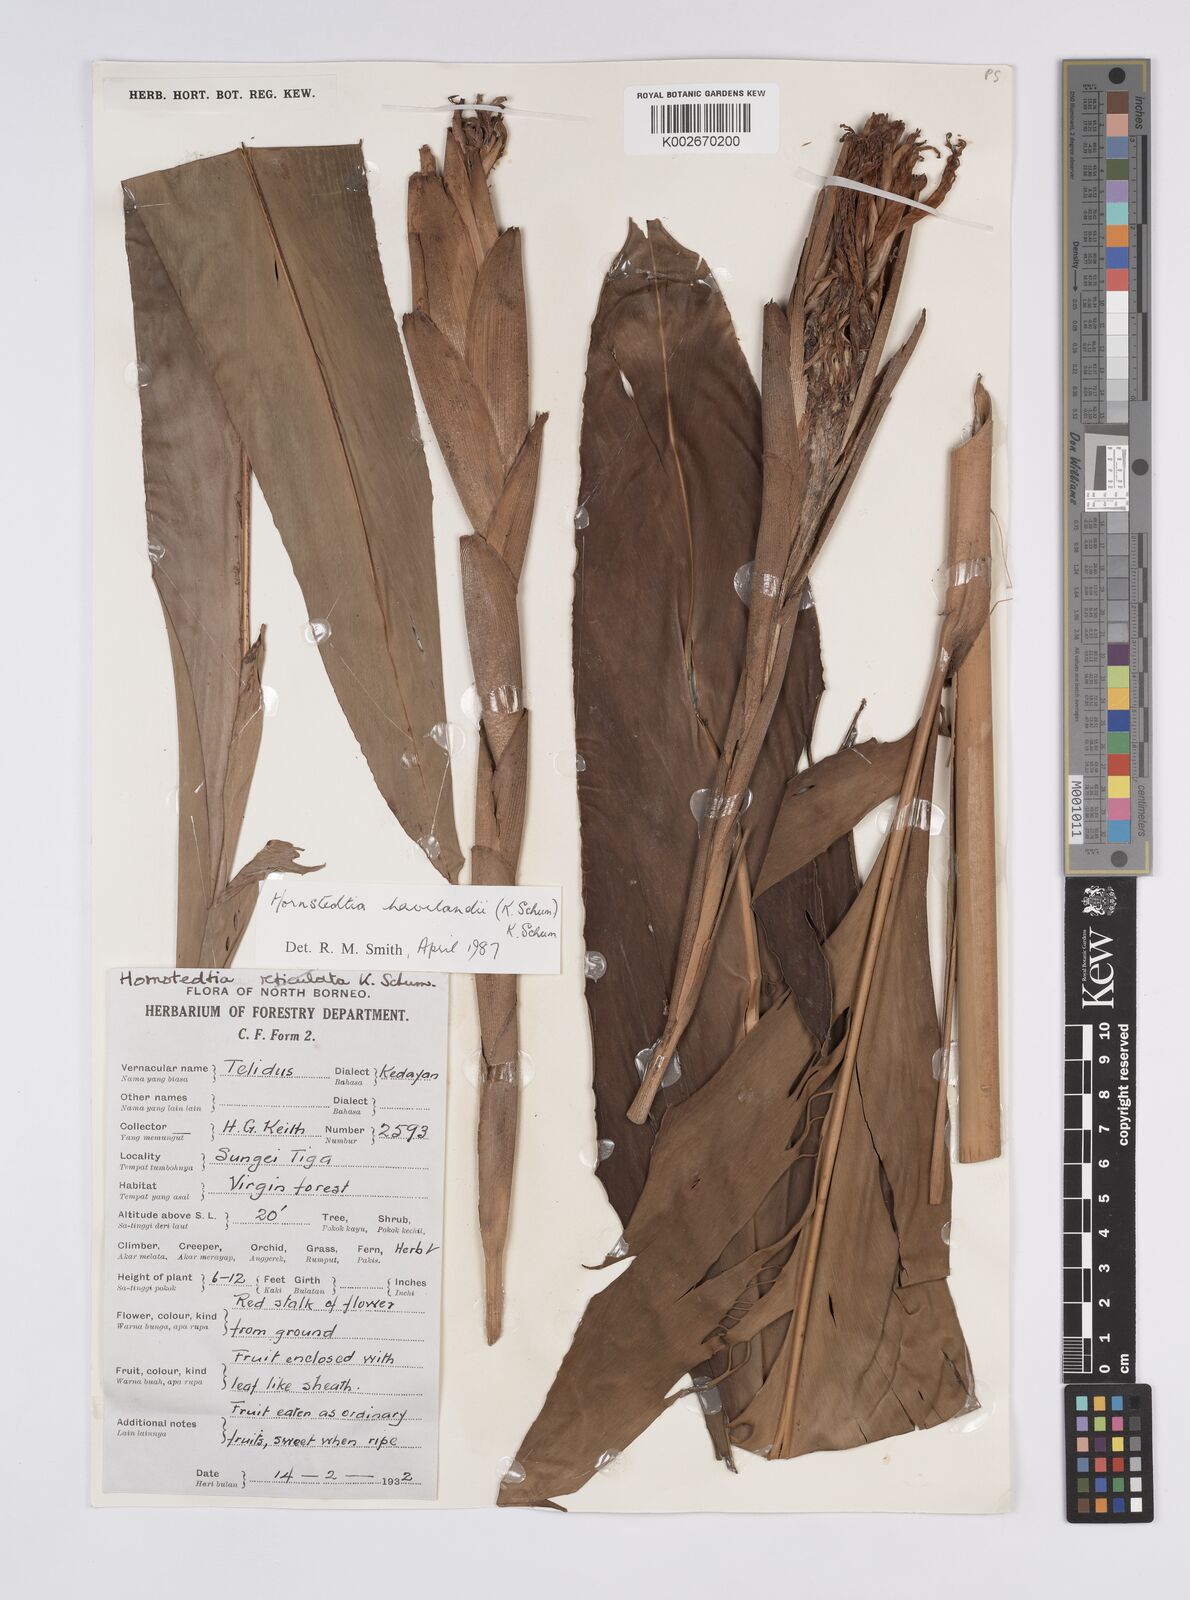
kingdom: Plantae
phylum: Tracheophyta
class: Liliopsida
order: Zingiberales
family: Zingiberaceae
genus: Hornstedtia
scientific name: Hornstedtia havilandii
